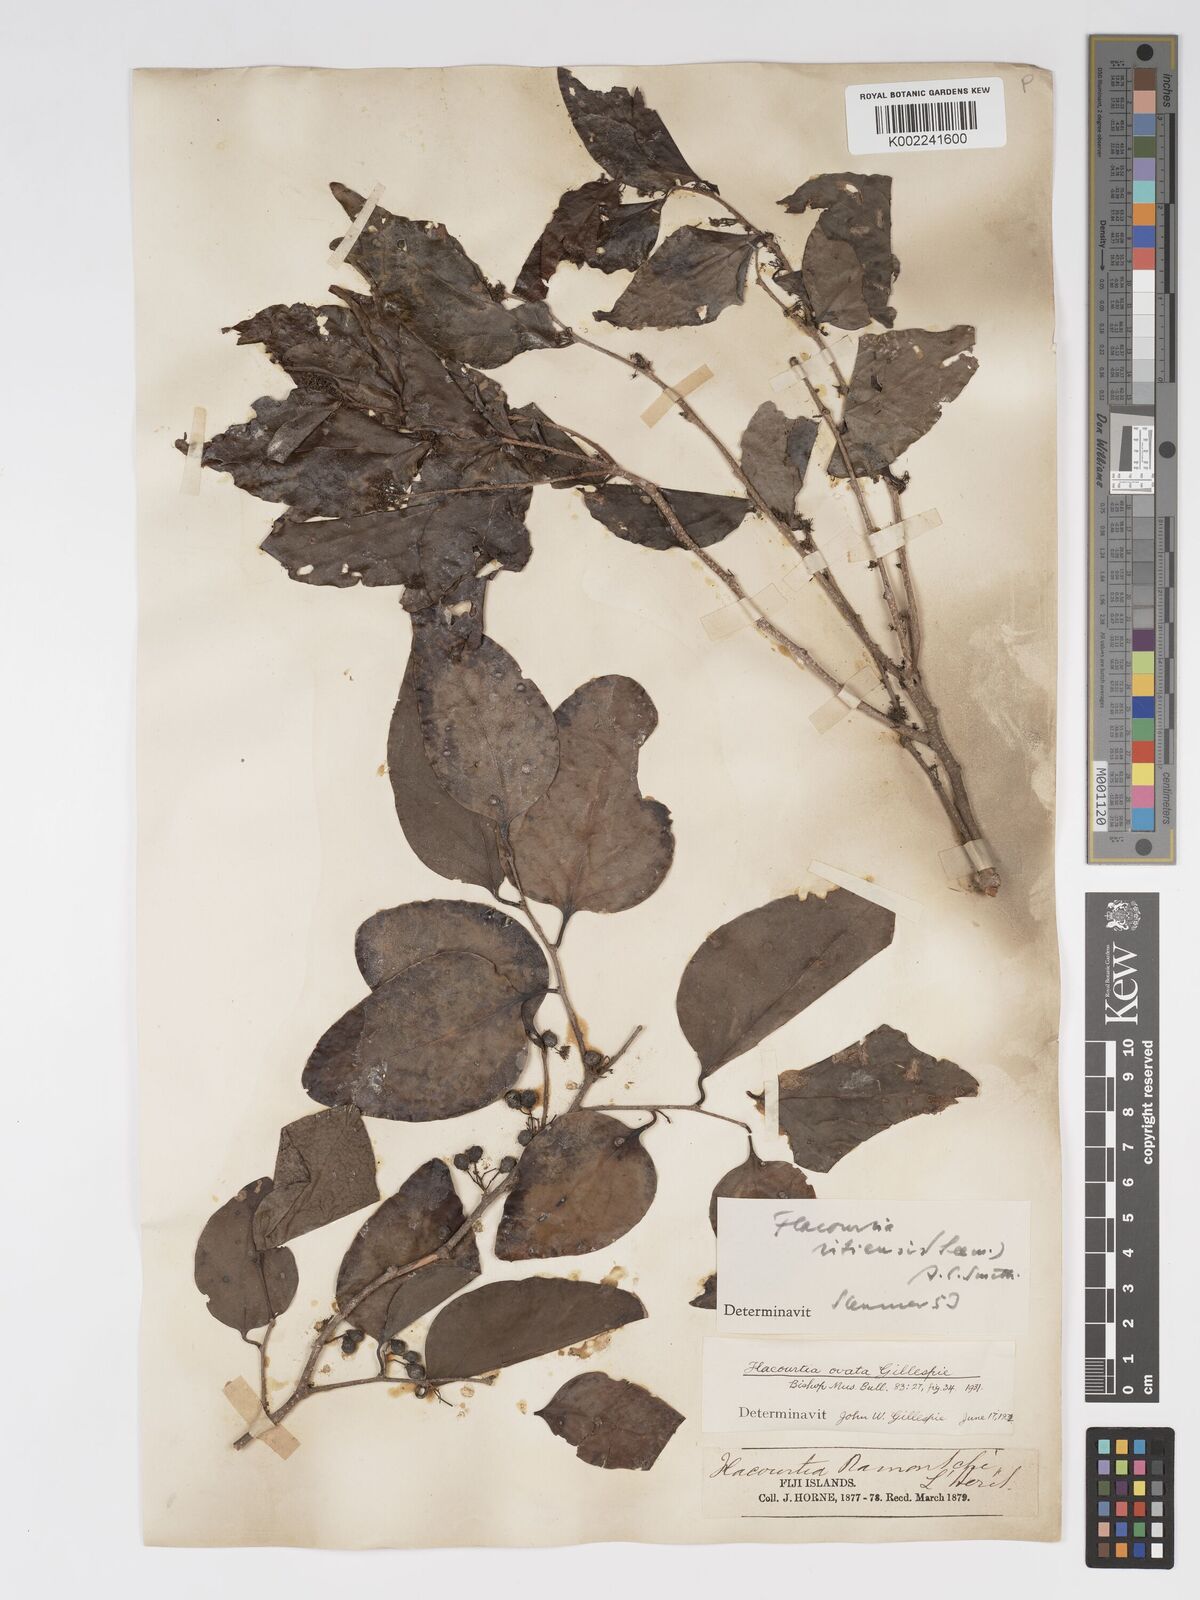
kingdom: Plantae
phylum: Tracheophyta
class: Magnoliopsida
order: Malpighiales
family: Salicaceae
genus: Flacourtia
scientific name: Flacourtia vitiensis
